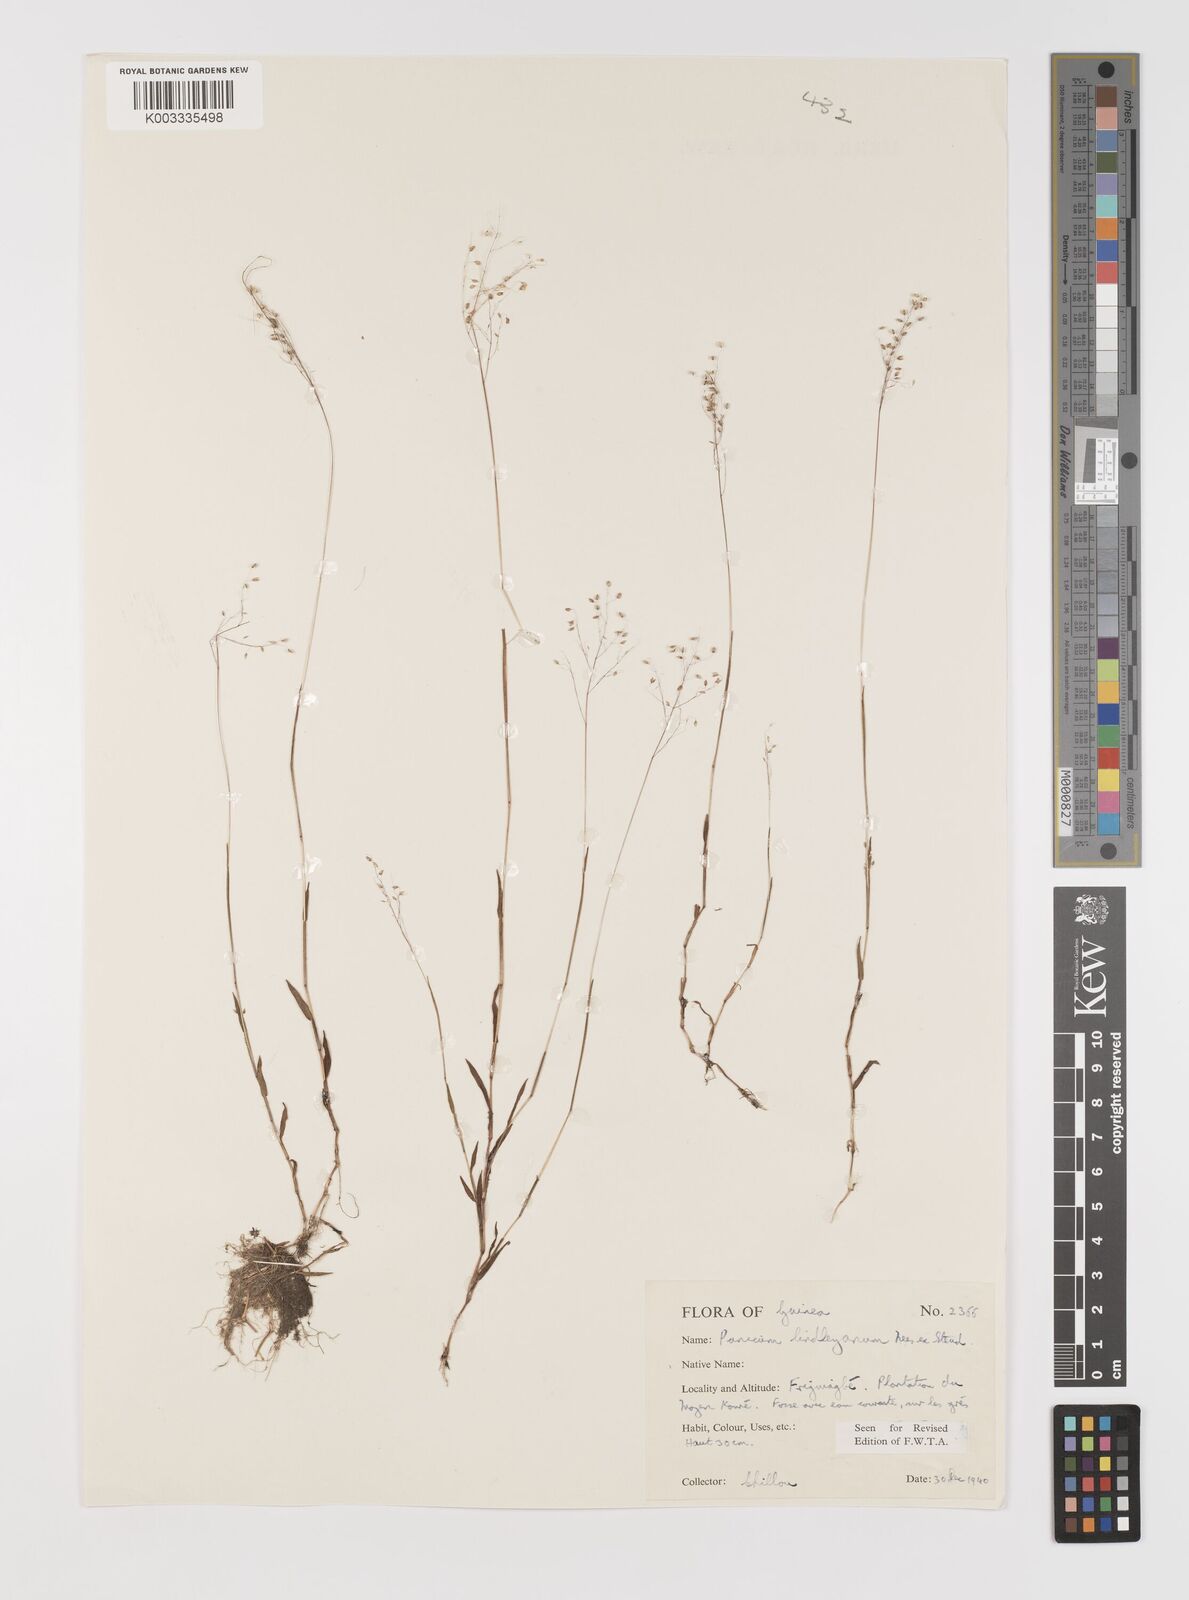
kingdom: Plantae
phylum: Tracheophyta
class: Liliopsida
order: Poales
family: Poaceae
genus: Trichanthecium
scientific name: Trichanthecium tenellum
